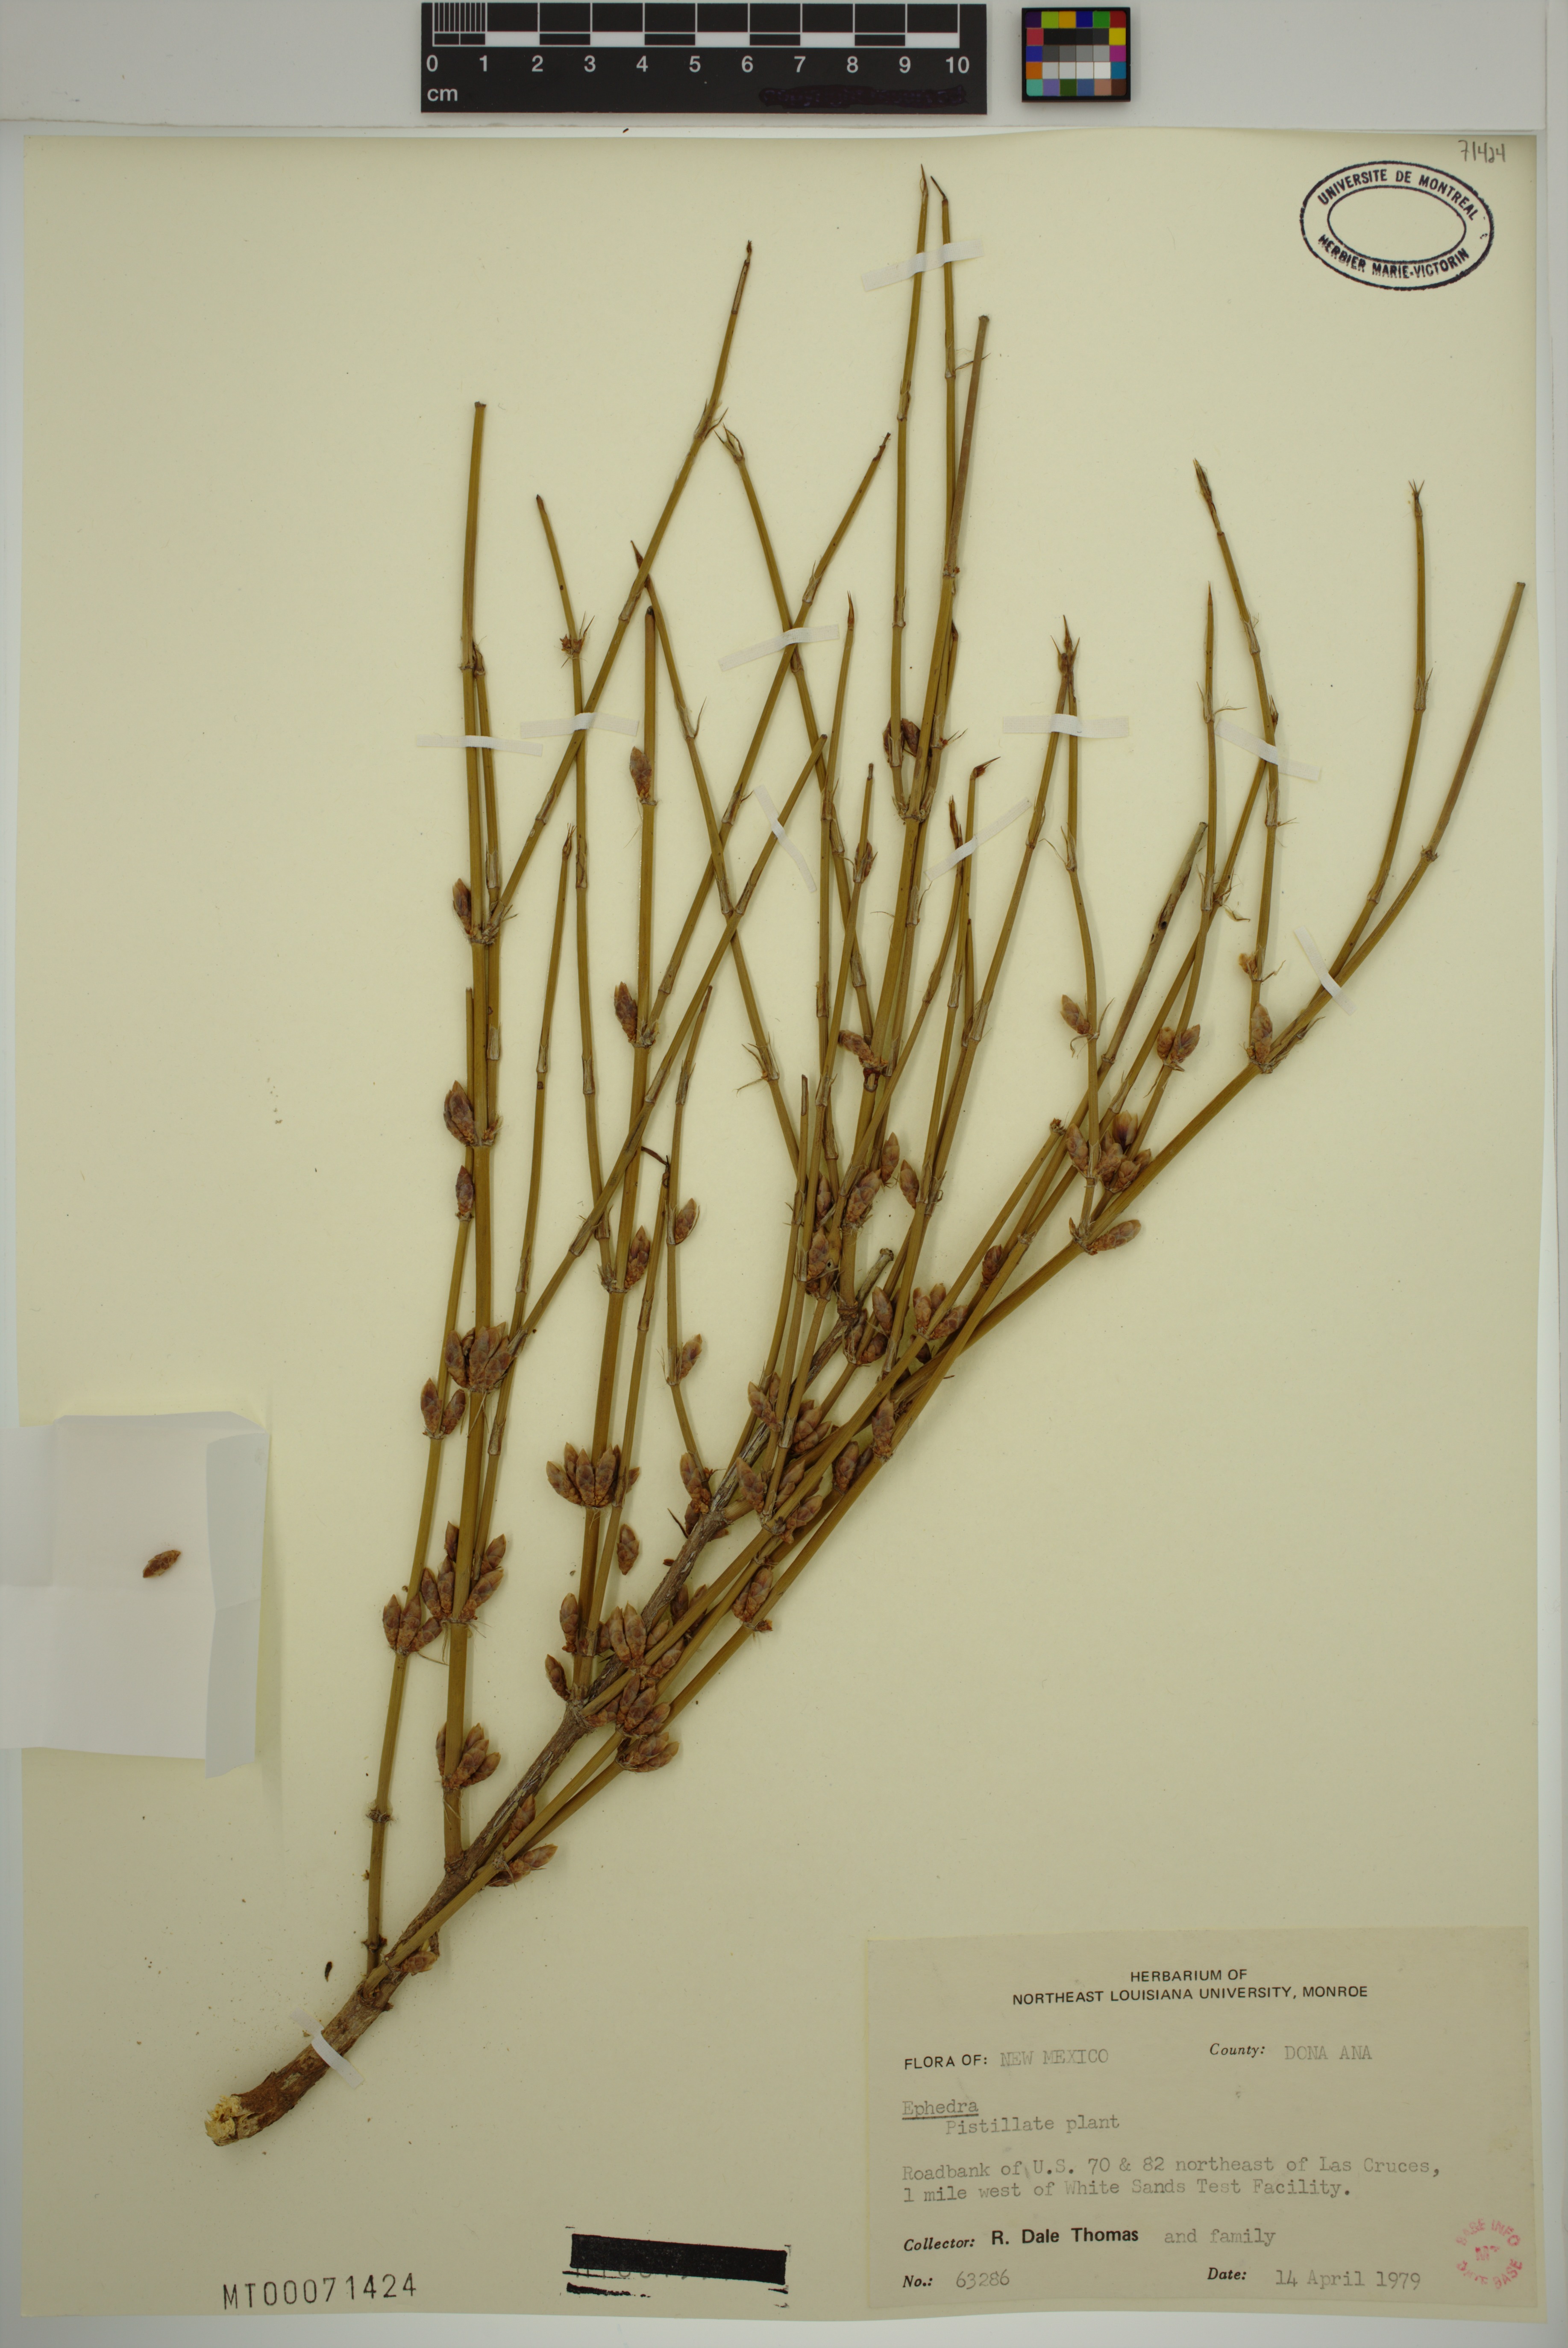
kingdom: Plantae
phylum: Tracheophyta
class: Gnetopsida
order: Ephedrales
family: Ephedraceae
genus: Ephedra
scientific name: Ephedra
